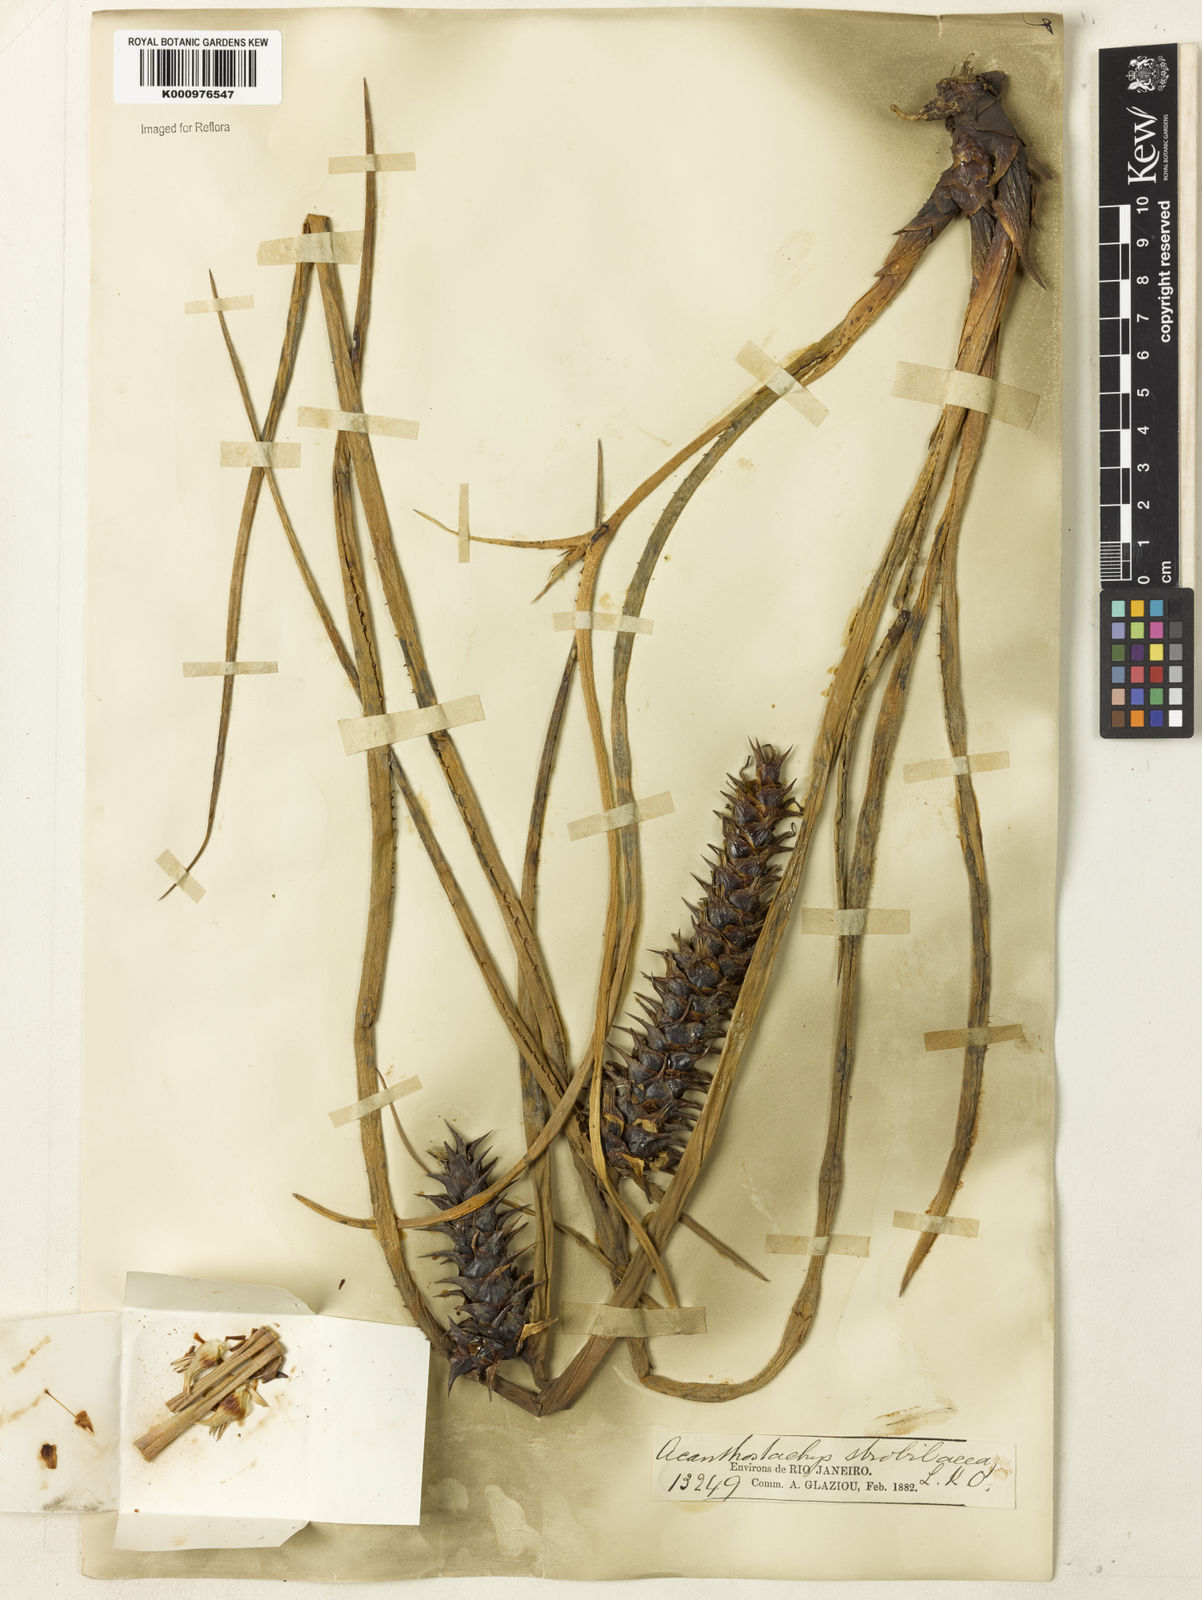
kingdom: Plantae
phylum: Tracheophyta
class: Liliopsida
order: Poales
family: Bromeliaceae
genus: Acanthostachys
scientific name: Acanthostachys strobilacea
